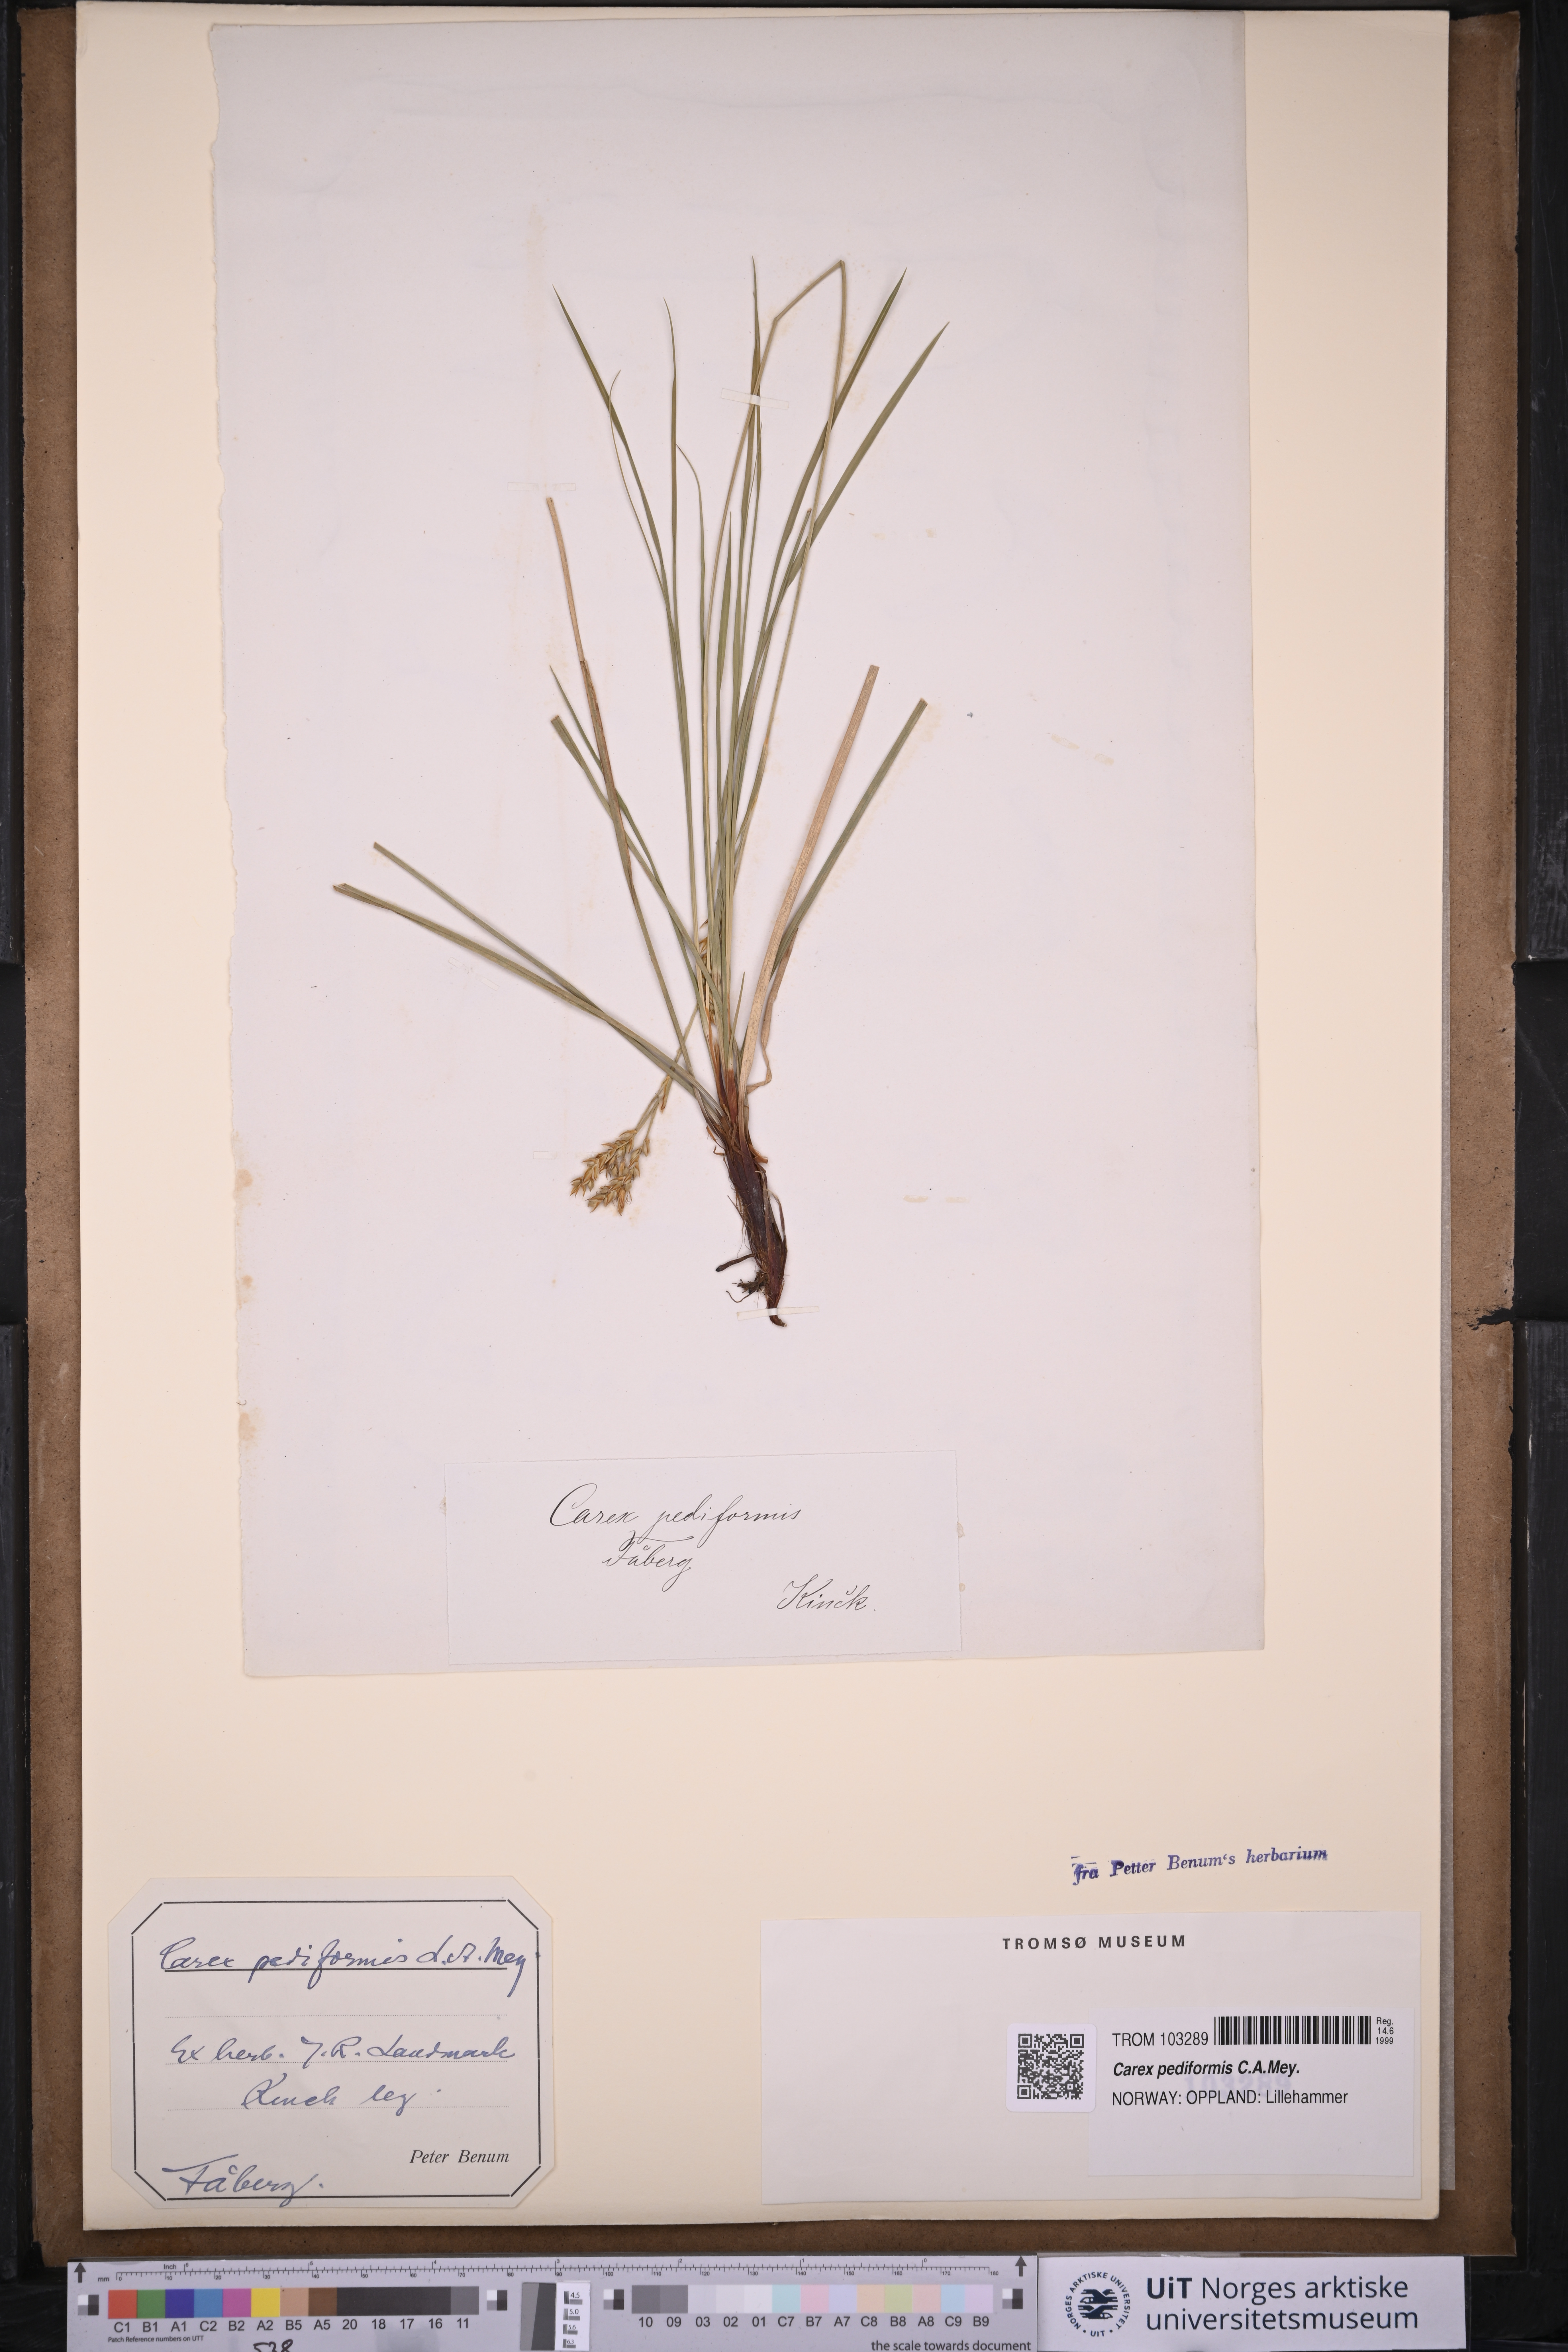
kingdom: Plantae
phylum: Tracheophyta
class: Liliopsida
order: Poales
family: Cyperaceae
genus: Carex
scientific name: Carex rhizina
